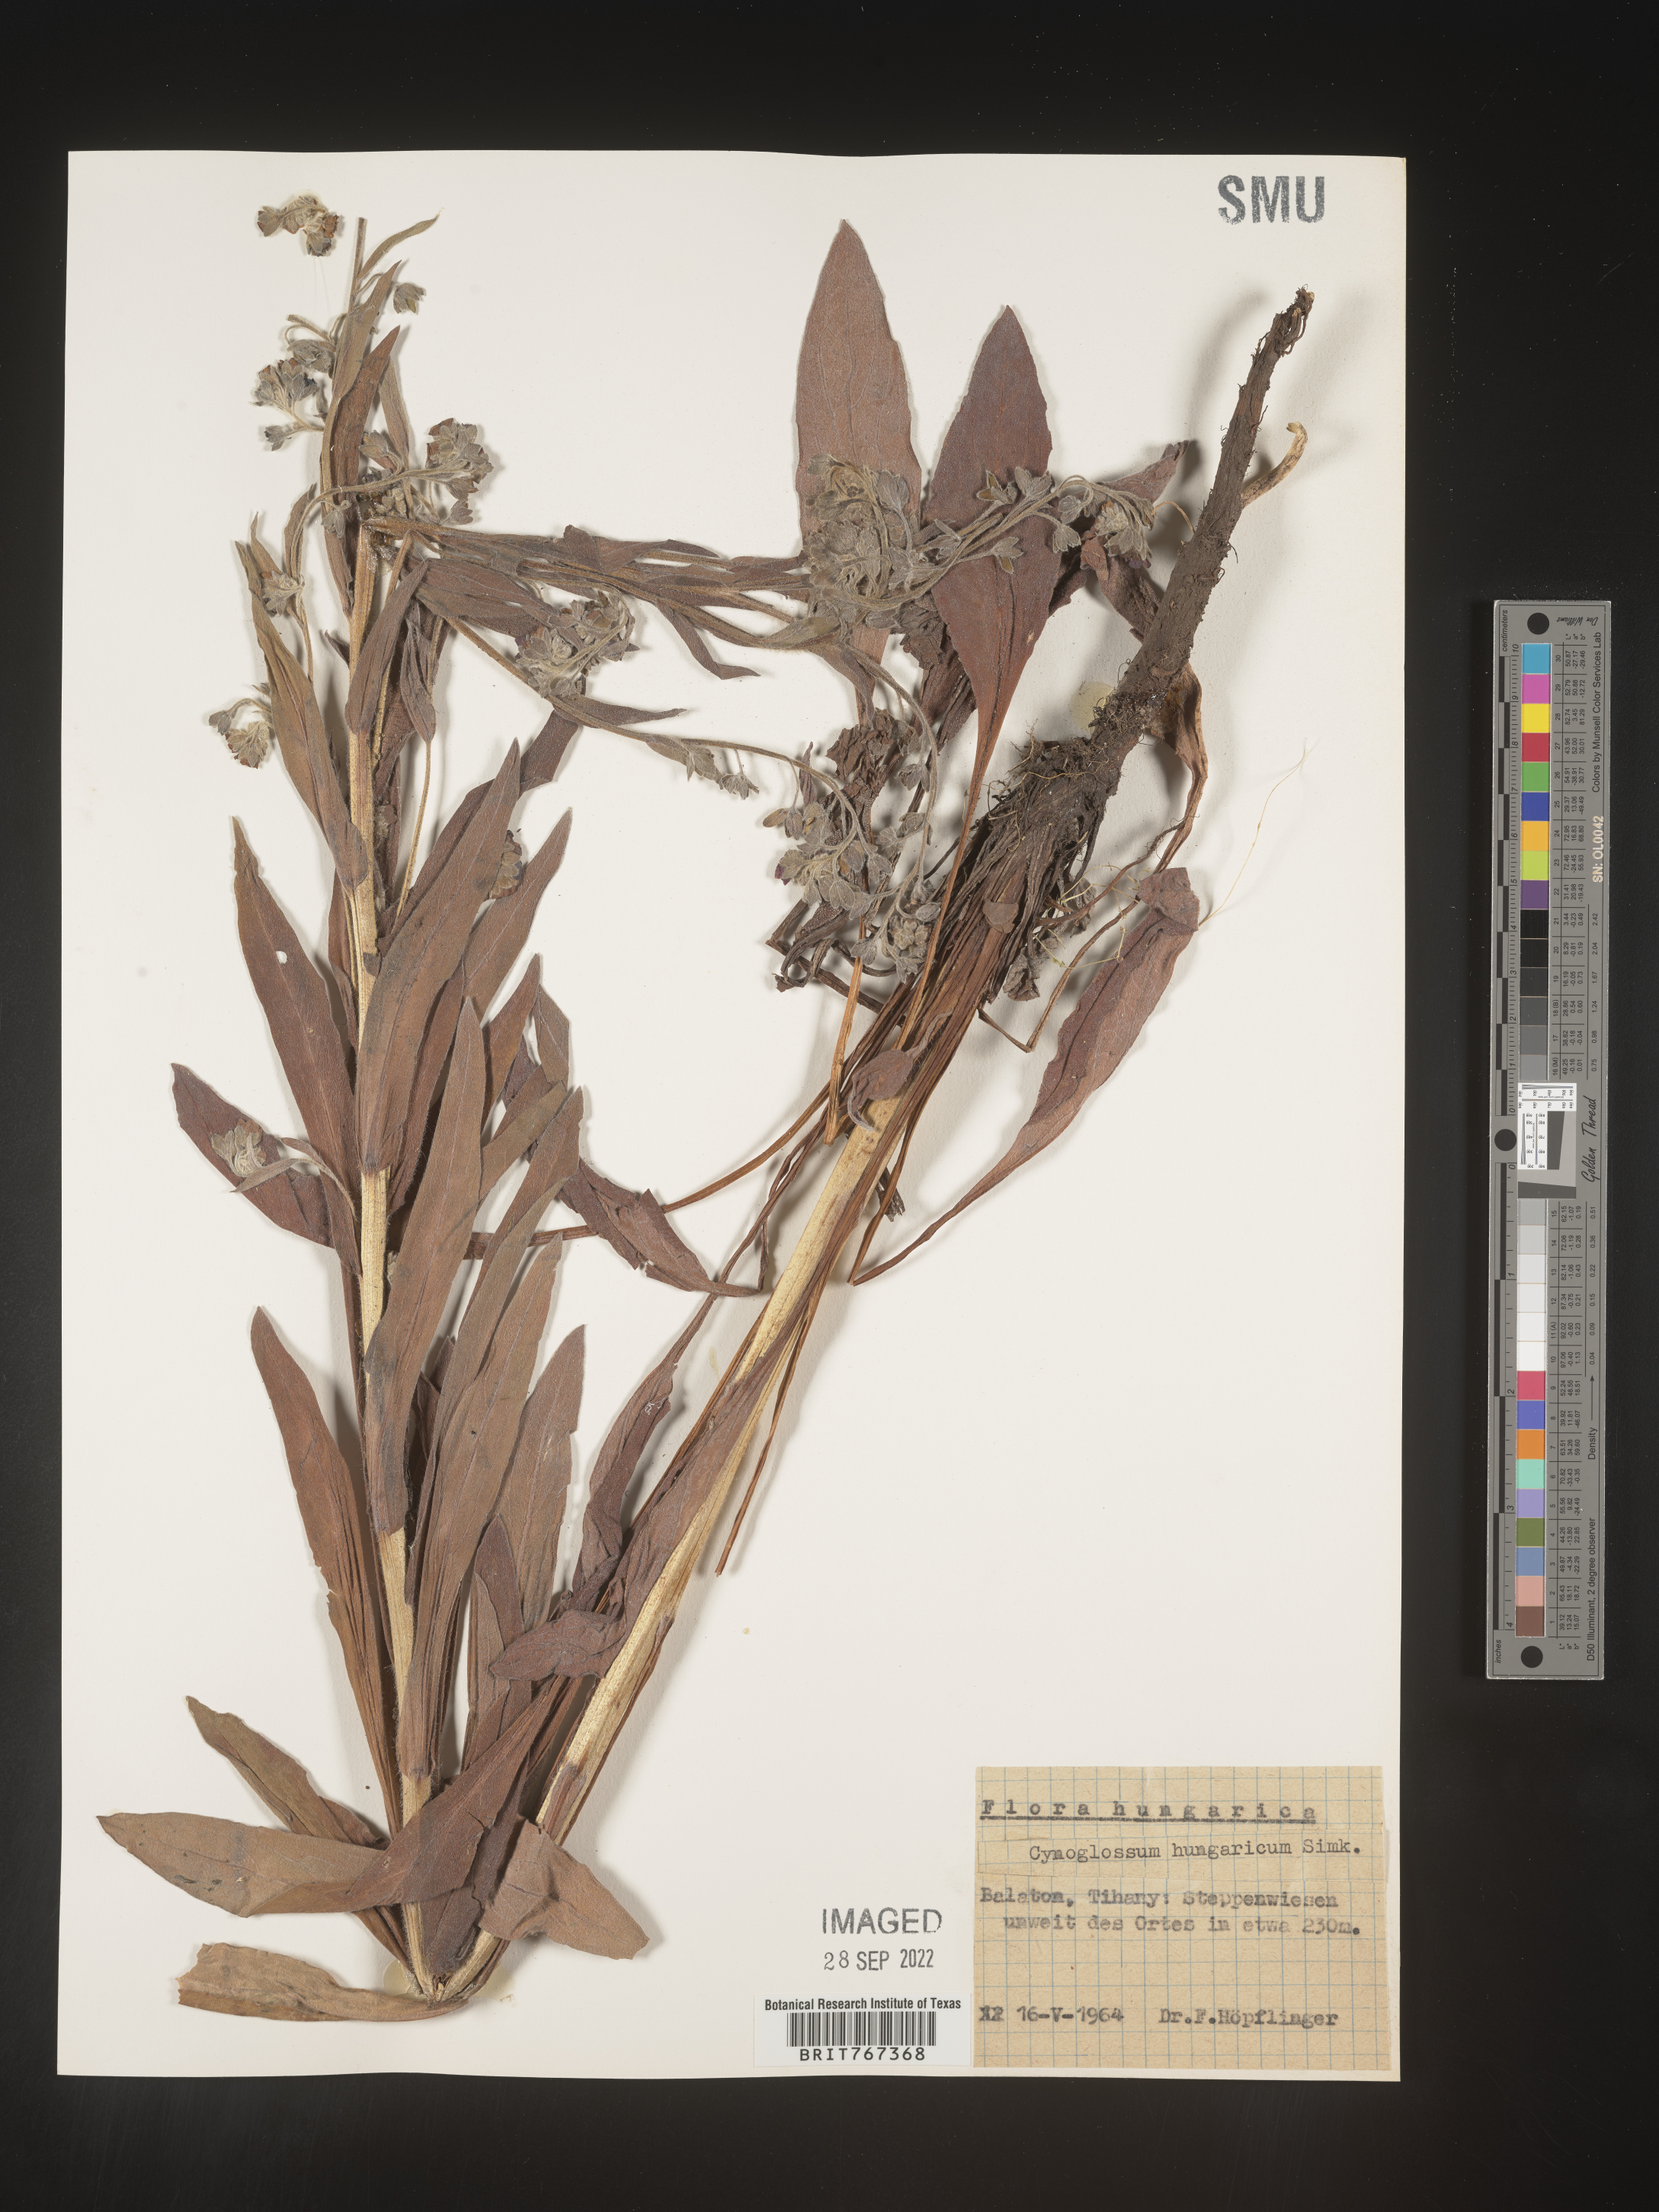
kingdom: Plantae
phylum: Tracheophyta
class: Magnoliopsida
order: Boraginales
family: Boraginaceae
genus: Cynoglossum
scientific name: Cynoglossum
